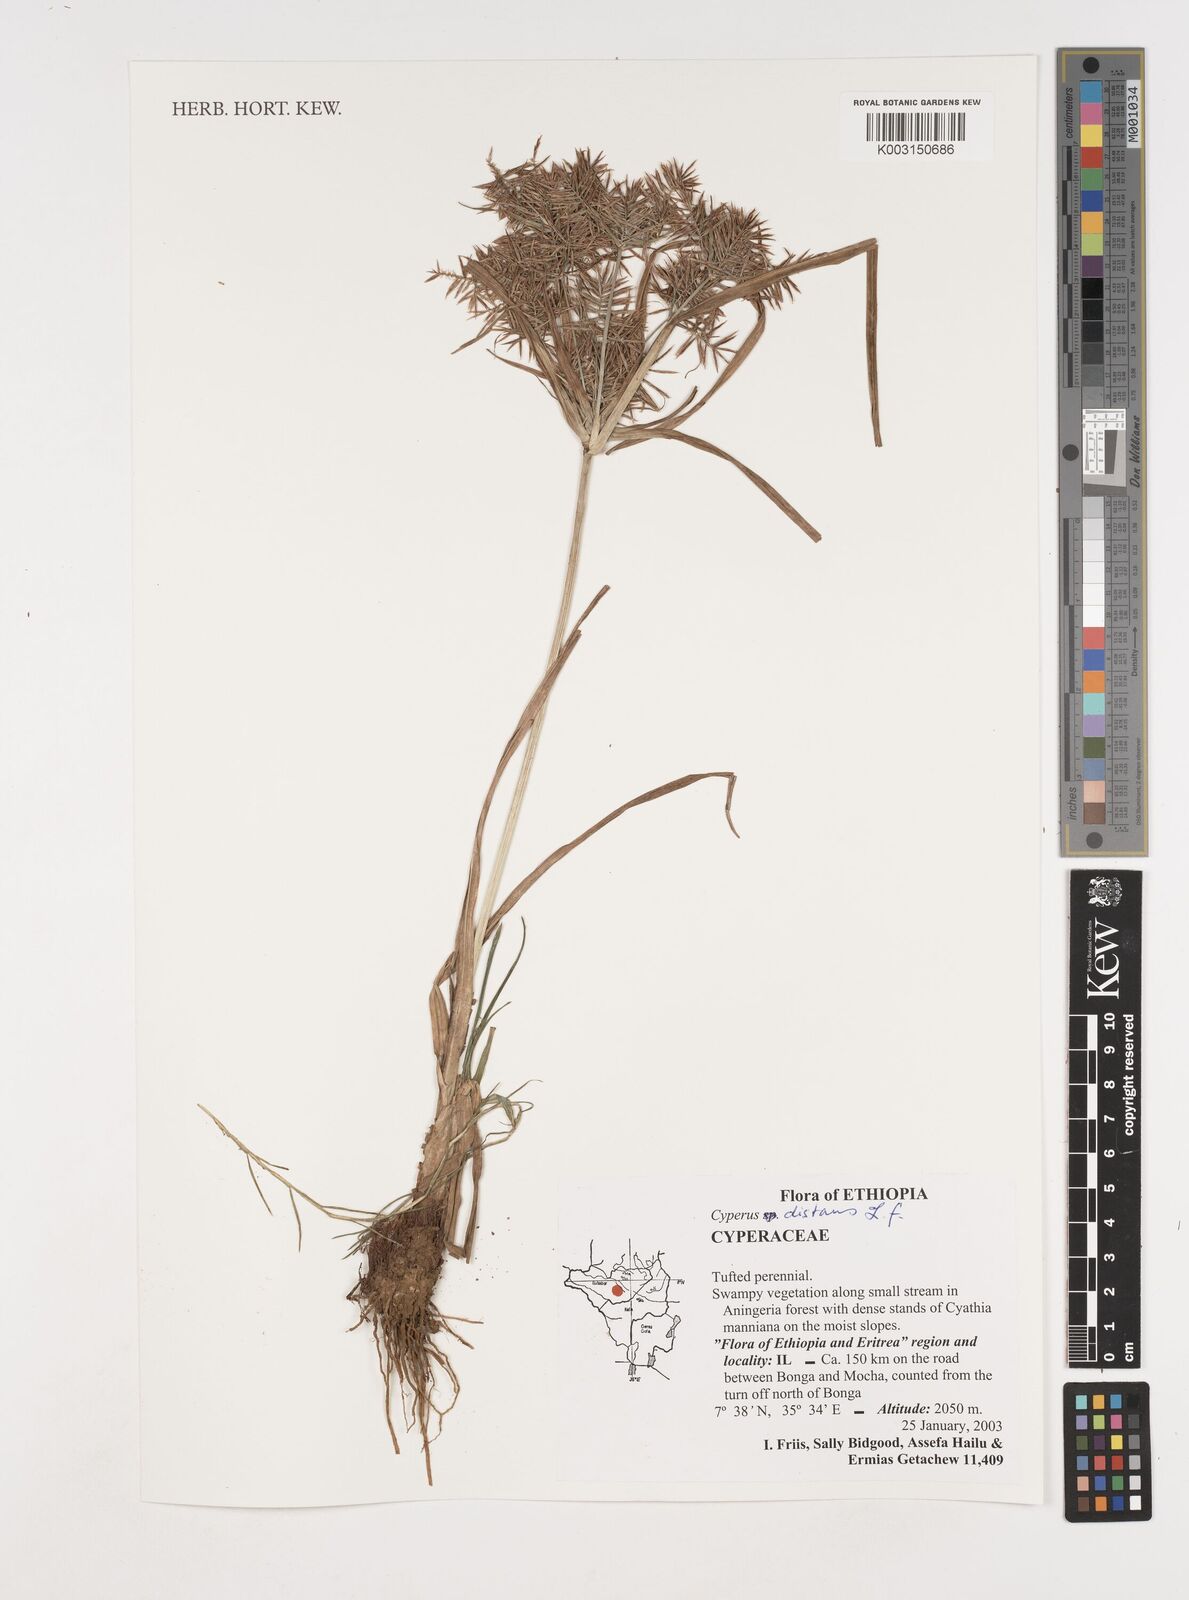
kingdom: Plantae
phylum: Tracheophyta
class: Liliopsida
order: Poales
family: Cyperaceae
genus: Cyperus
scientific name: Cyperus distans
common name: Slender cyperus
